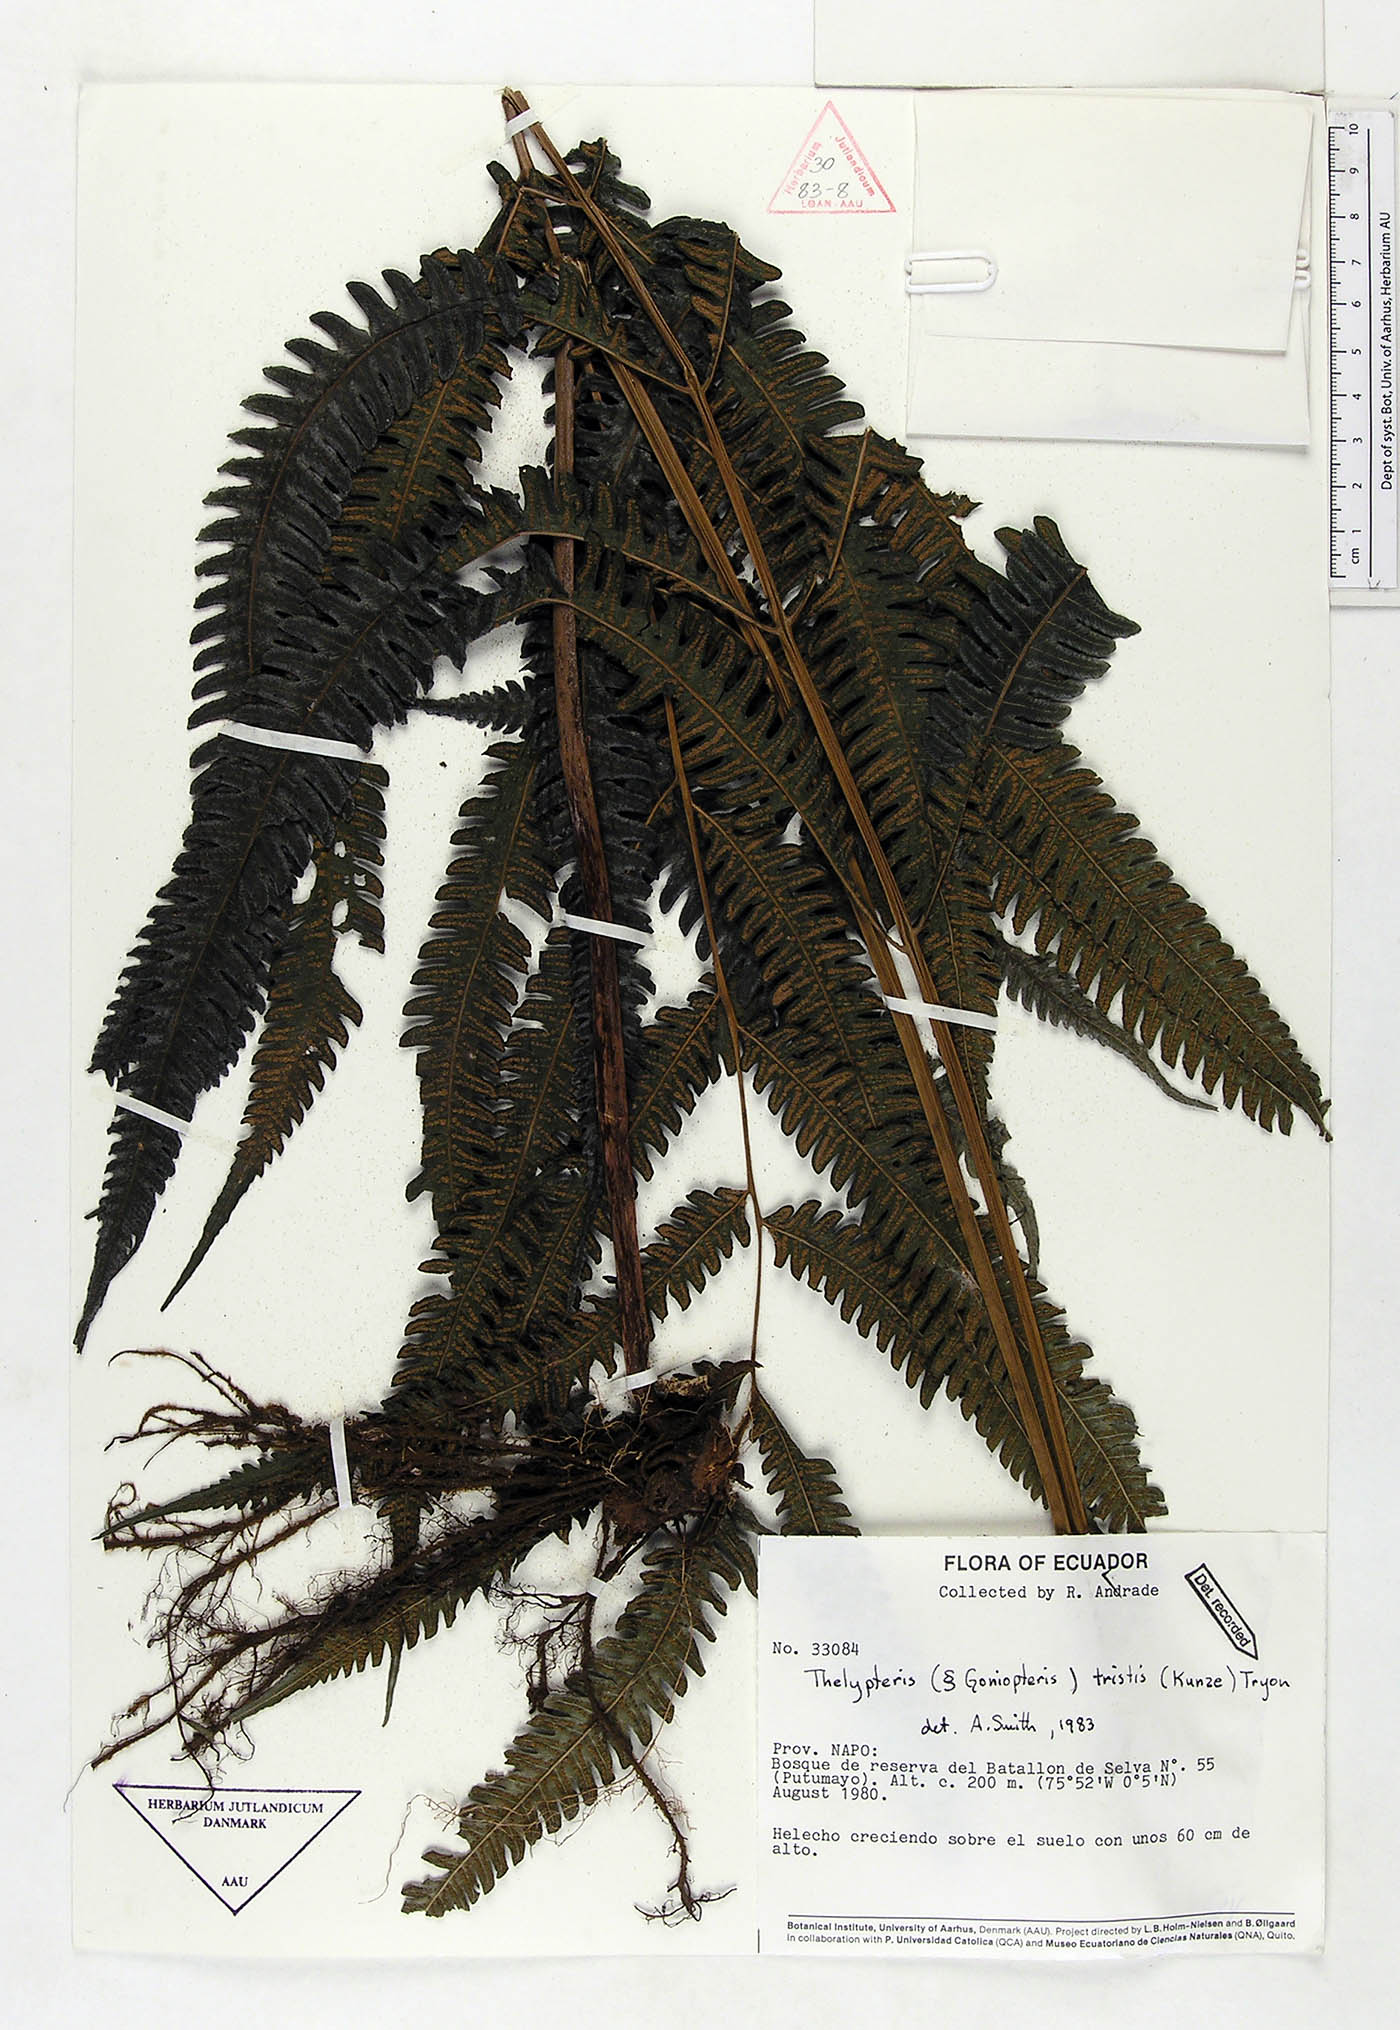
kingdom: Plantae
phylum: Tracheophyta
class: Polypodiopsida
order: Polypodiales
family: Thelypteridaceae
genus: Goniopteris
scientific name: Goniopteris tristis
